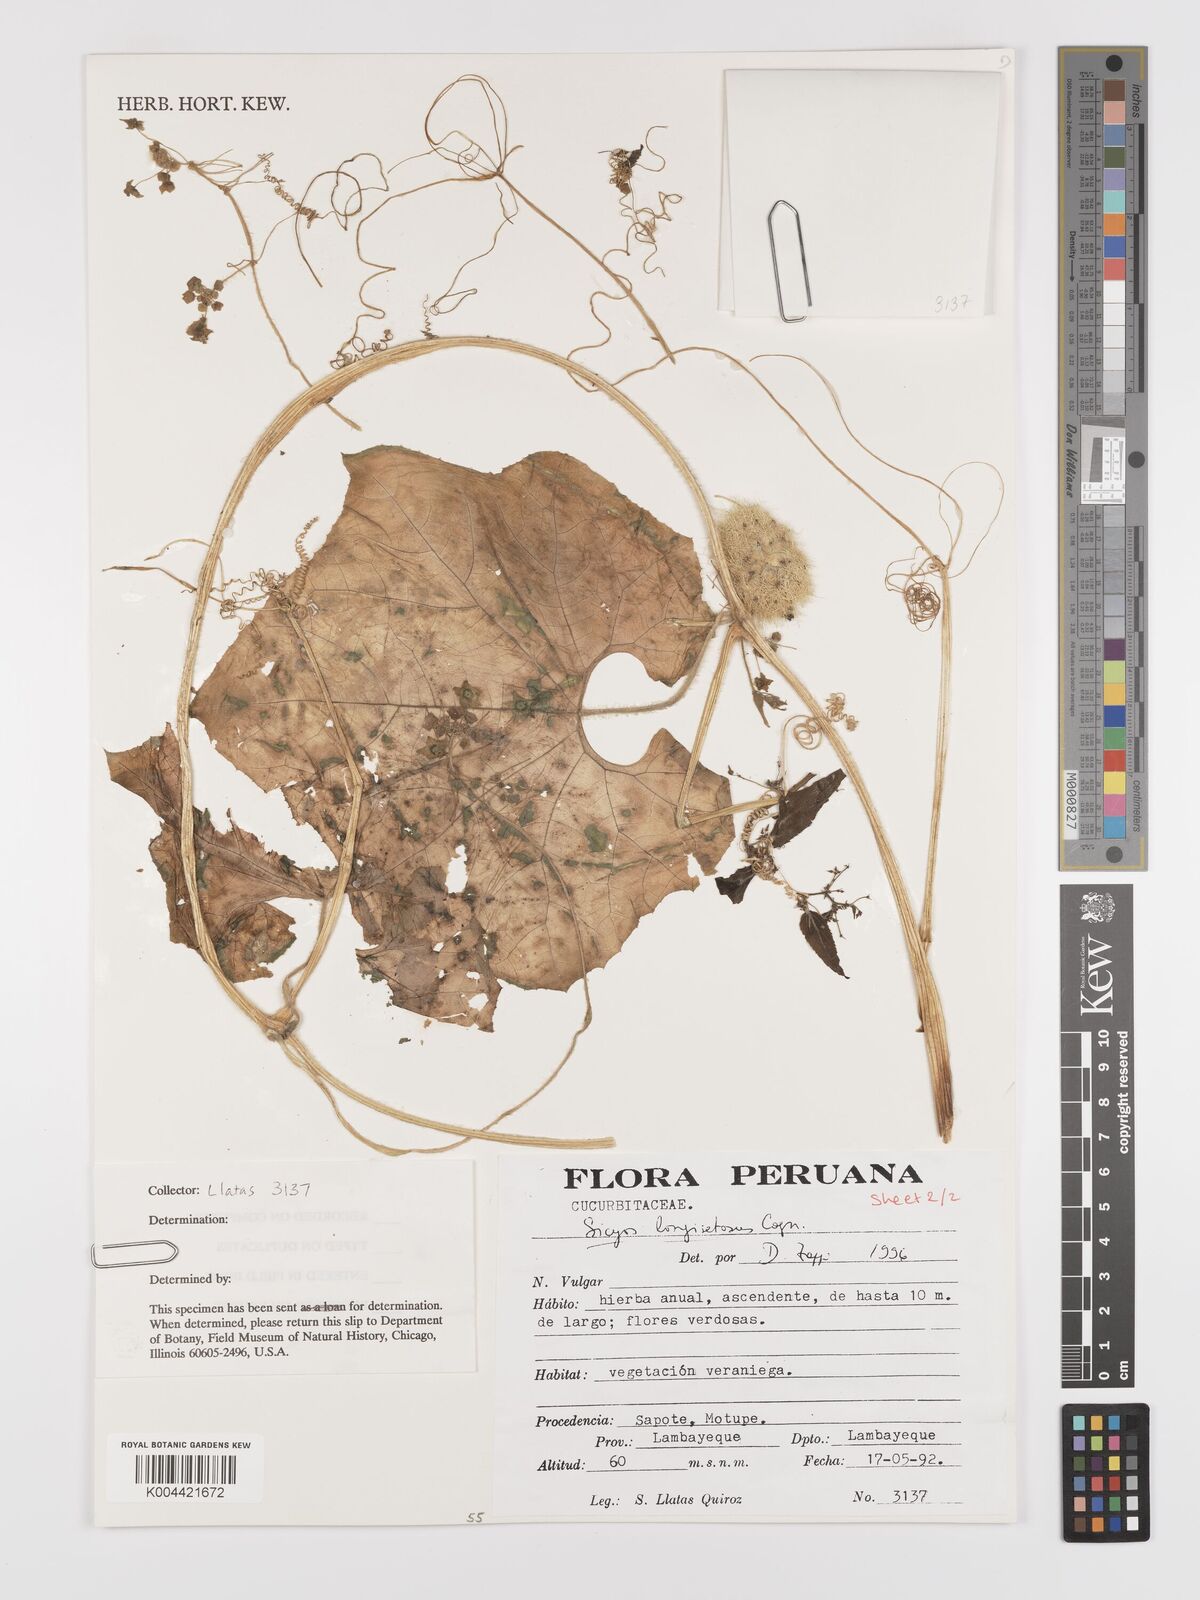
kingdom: Plantae
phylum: Tracheophyta
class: Magnoliopsida
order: Cucurbitales
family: Cucurbitaceae
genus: Sicyos
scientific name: Sicyos longisetosus
